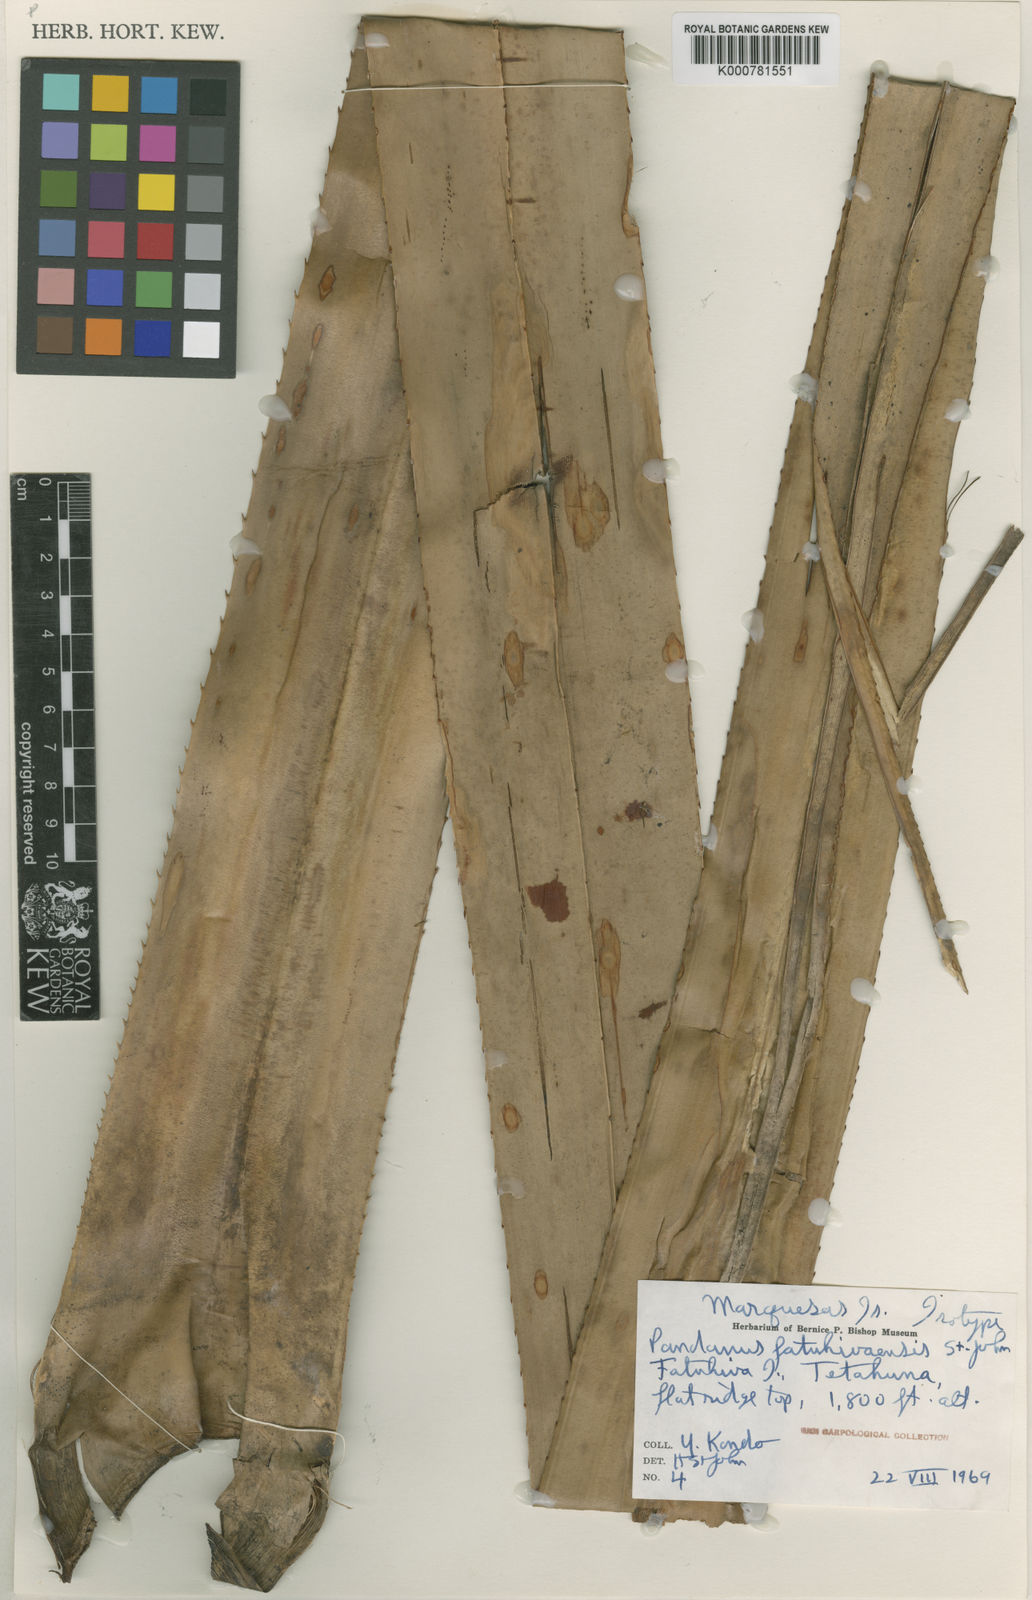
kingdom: Plantae
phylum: Tracheophyta
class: Liliopsida
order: Pandanales
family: Pandanaceae
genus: Pandanus
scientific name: Pandanus tectorius
